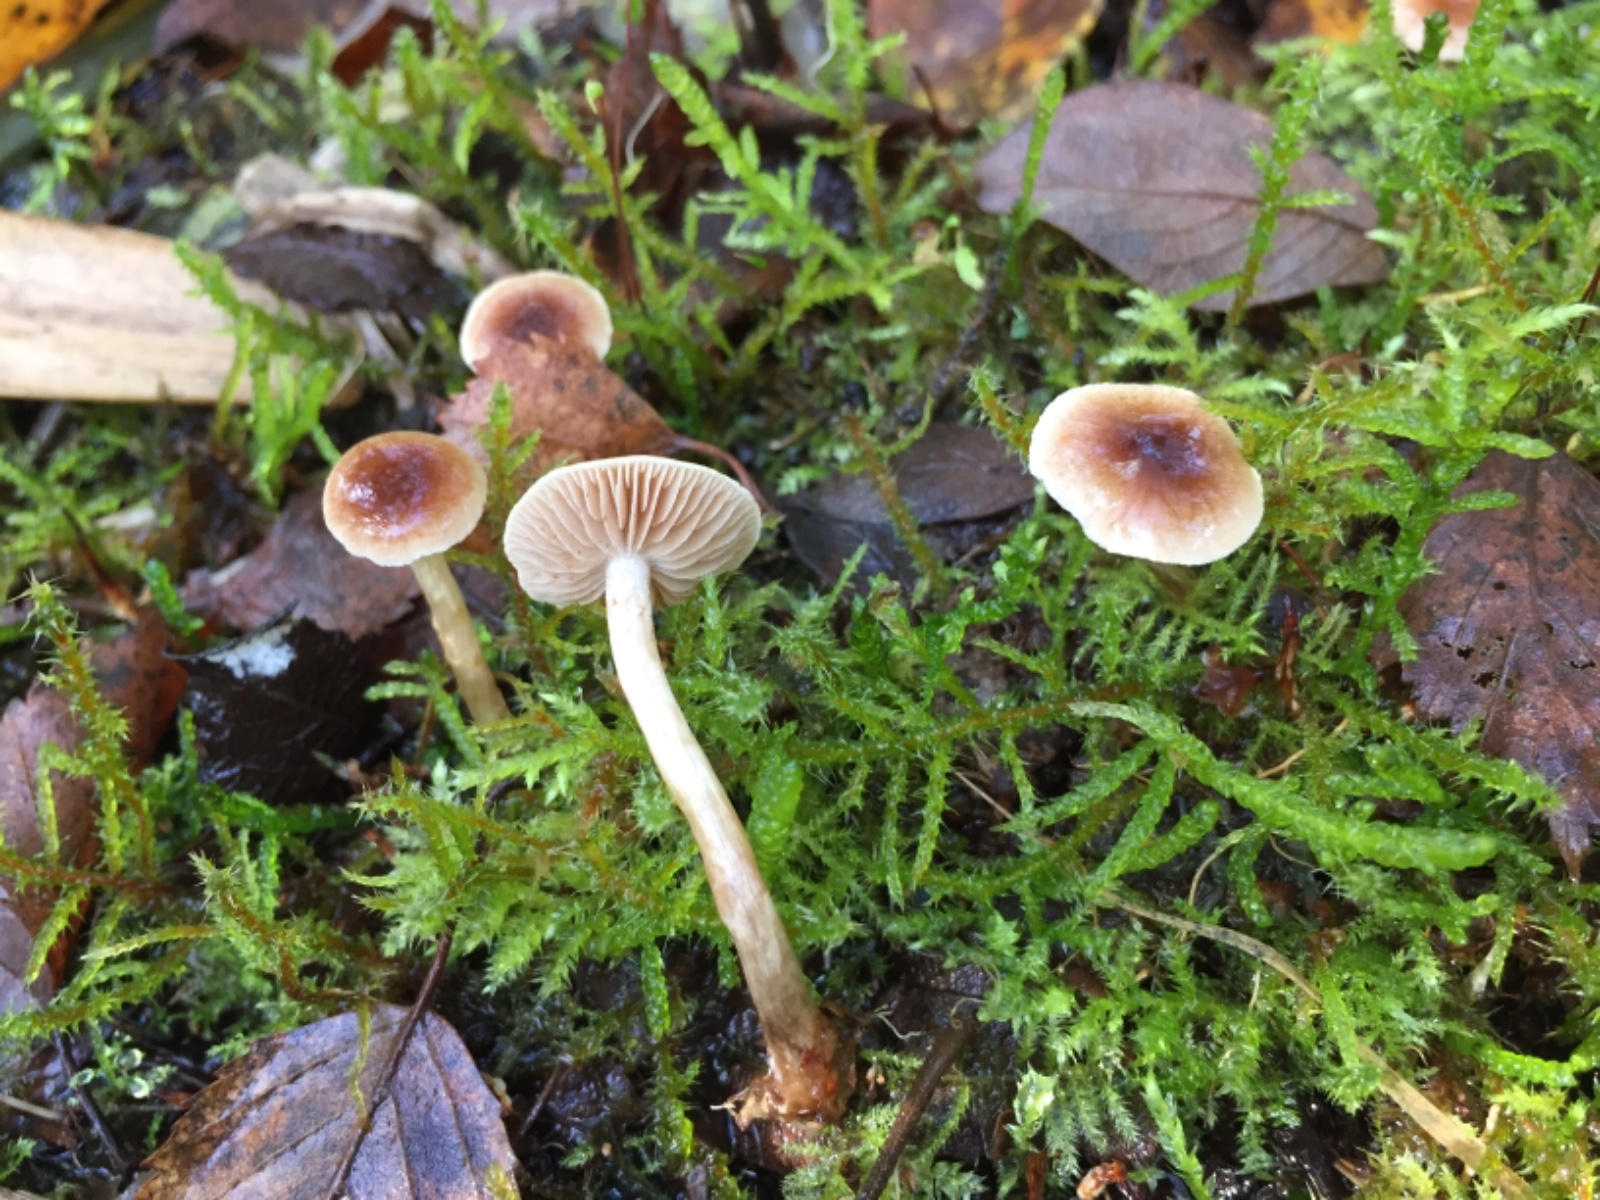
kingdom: Fungi
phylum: Basidiomycota
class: Agaricomycetes
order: Agaricales
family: Hymenogastraceae
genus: Hebeloma
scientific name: Hebeloma
